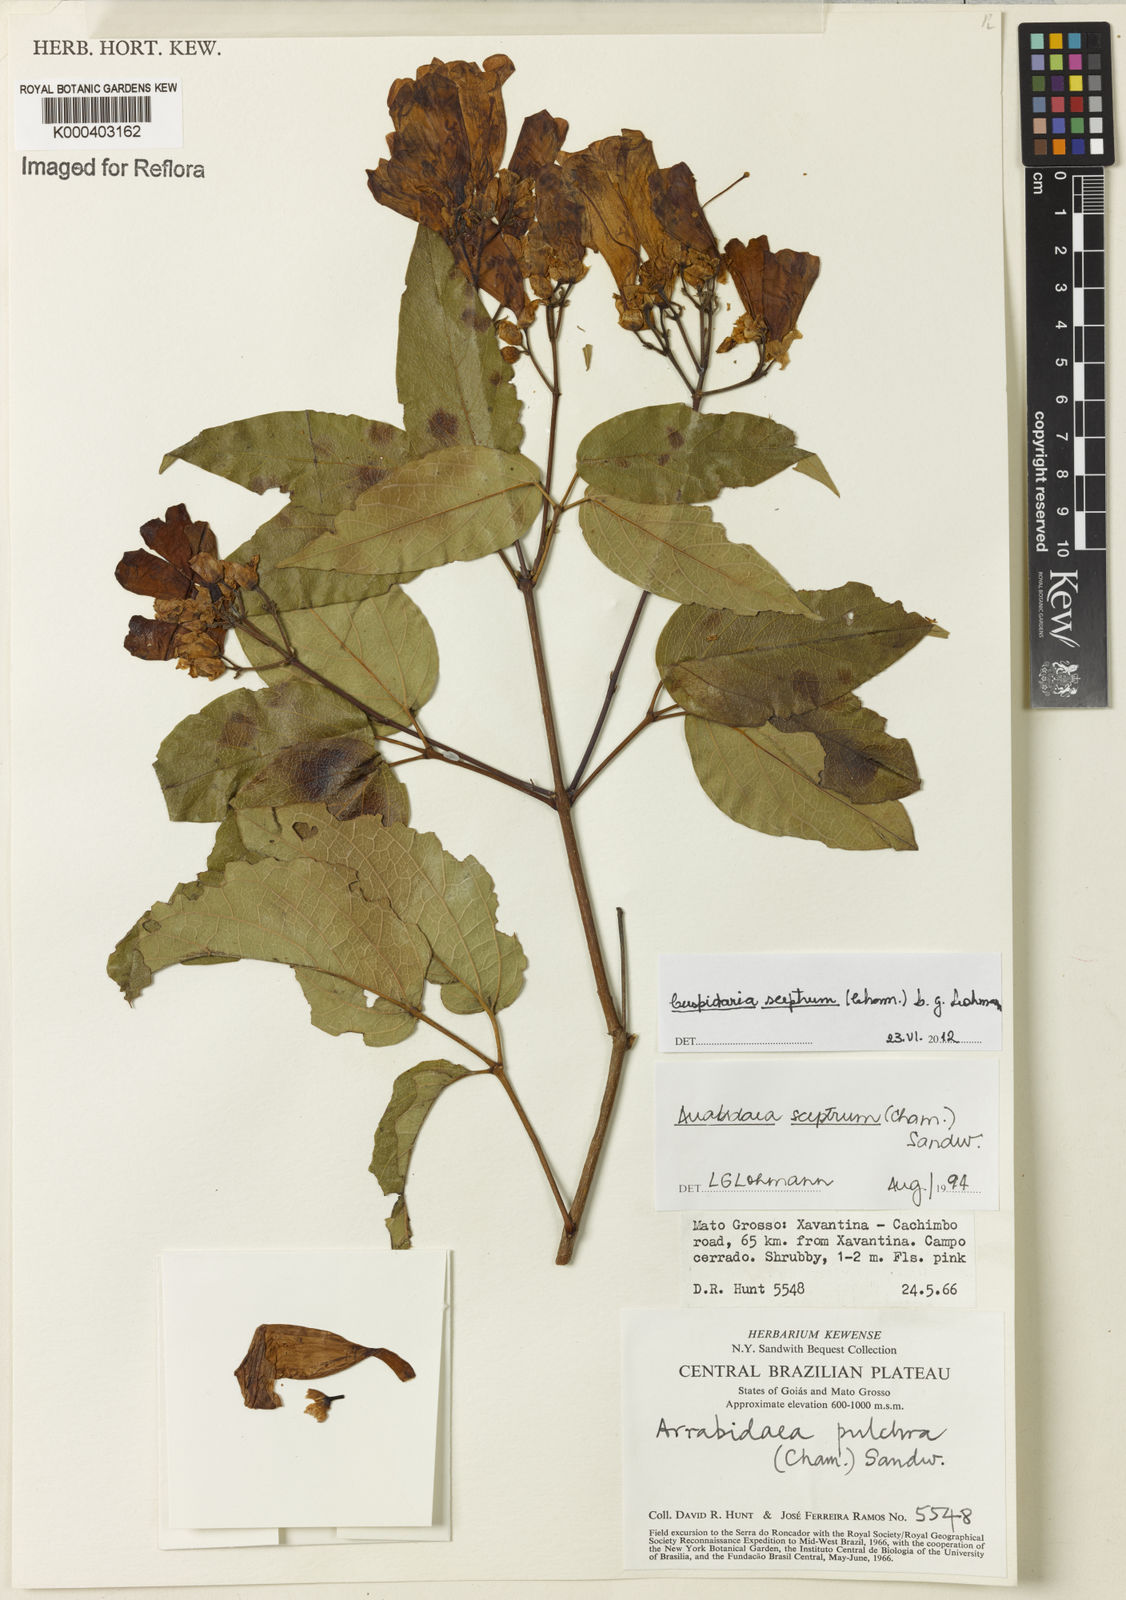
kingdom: Plantae
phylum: Tracheophyta
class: Magnoliopsida
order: Lamiales
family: Bignoniaceae
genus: Cuspidaria
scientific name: Cuspidaria sceptrum
